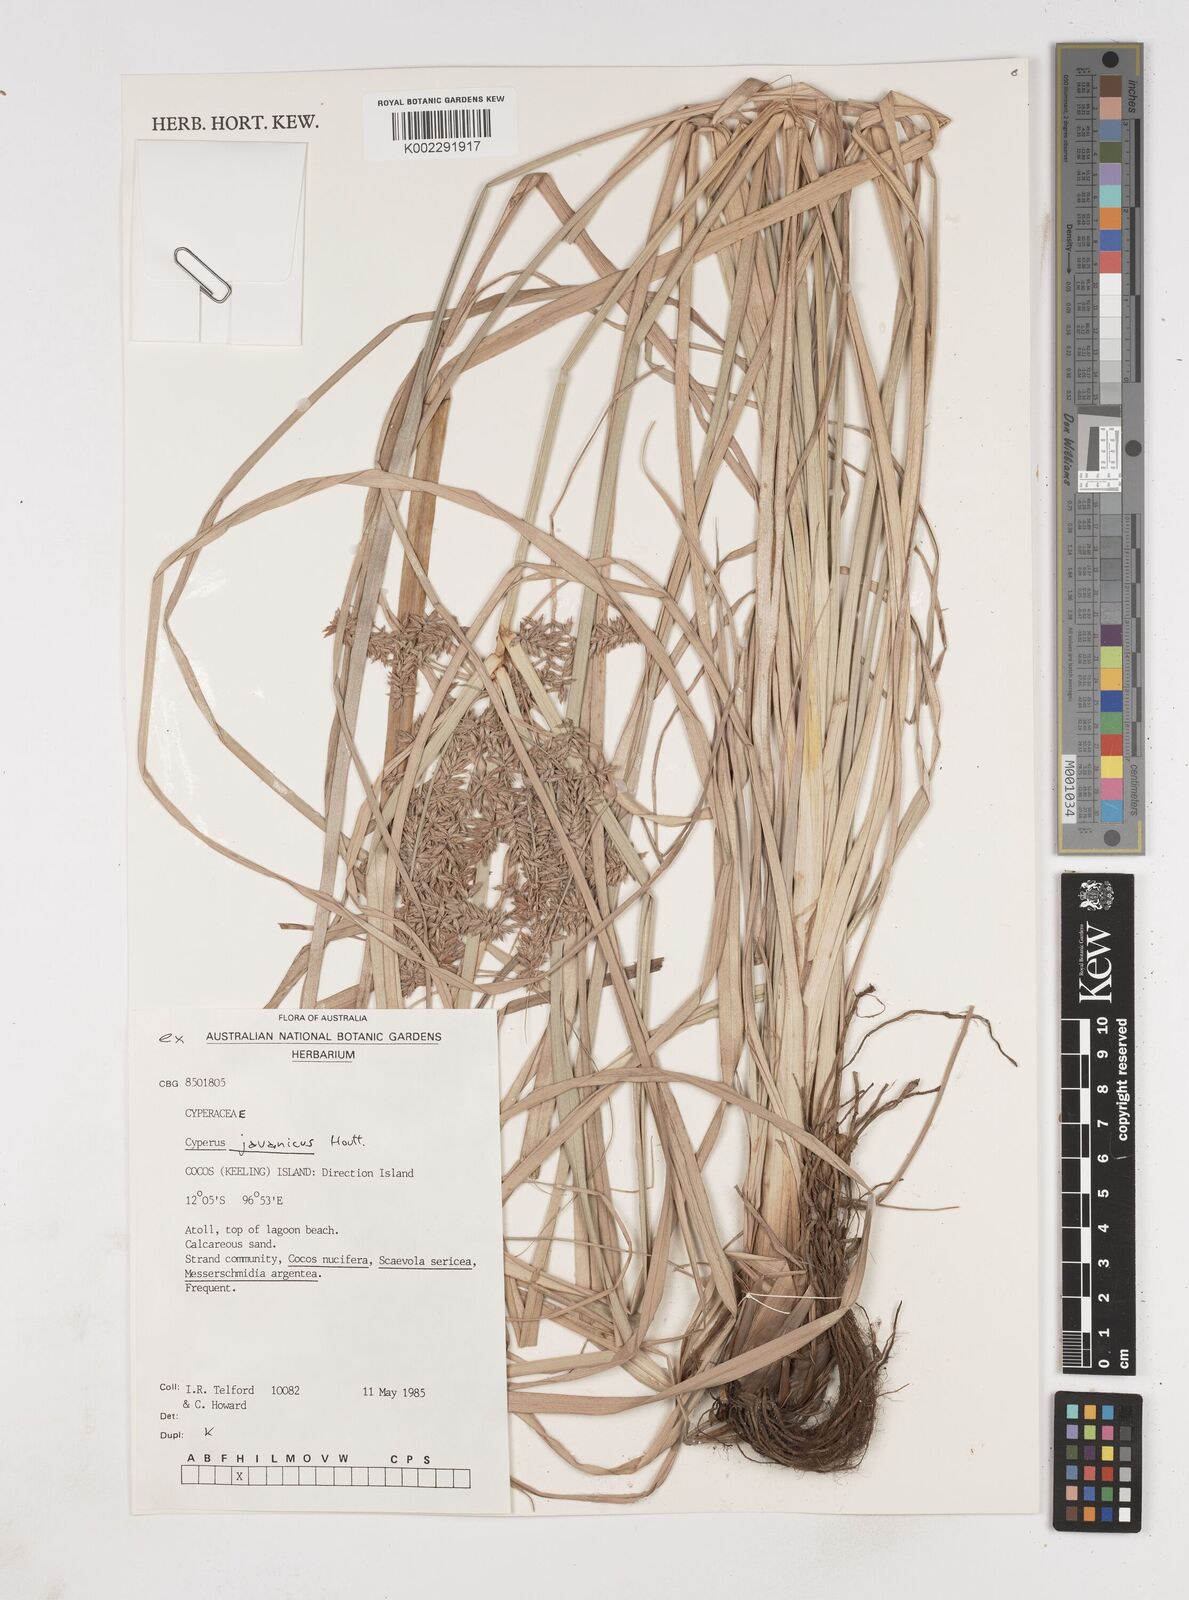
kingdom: Plantae
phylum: Tracheophyta
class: Liliopsida
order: Poales
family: Cyperaceae
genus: Cyperus
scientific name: Cyperus javanicus
